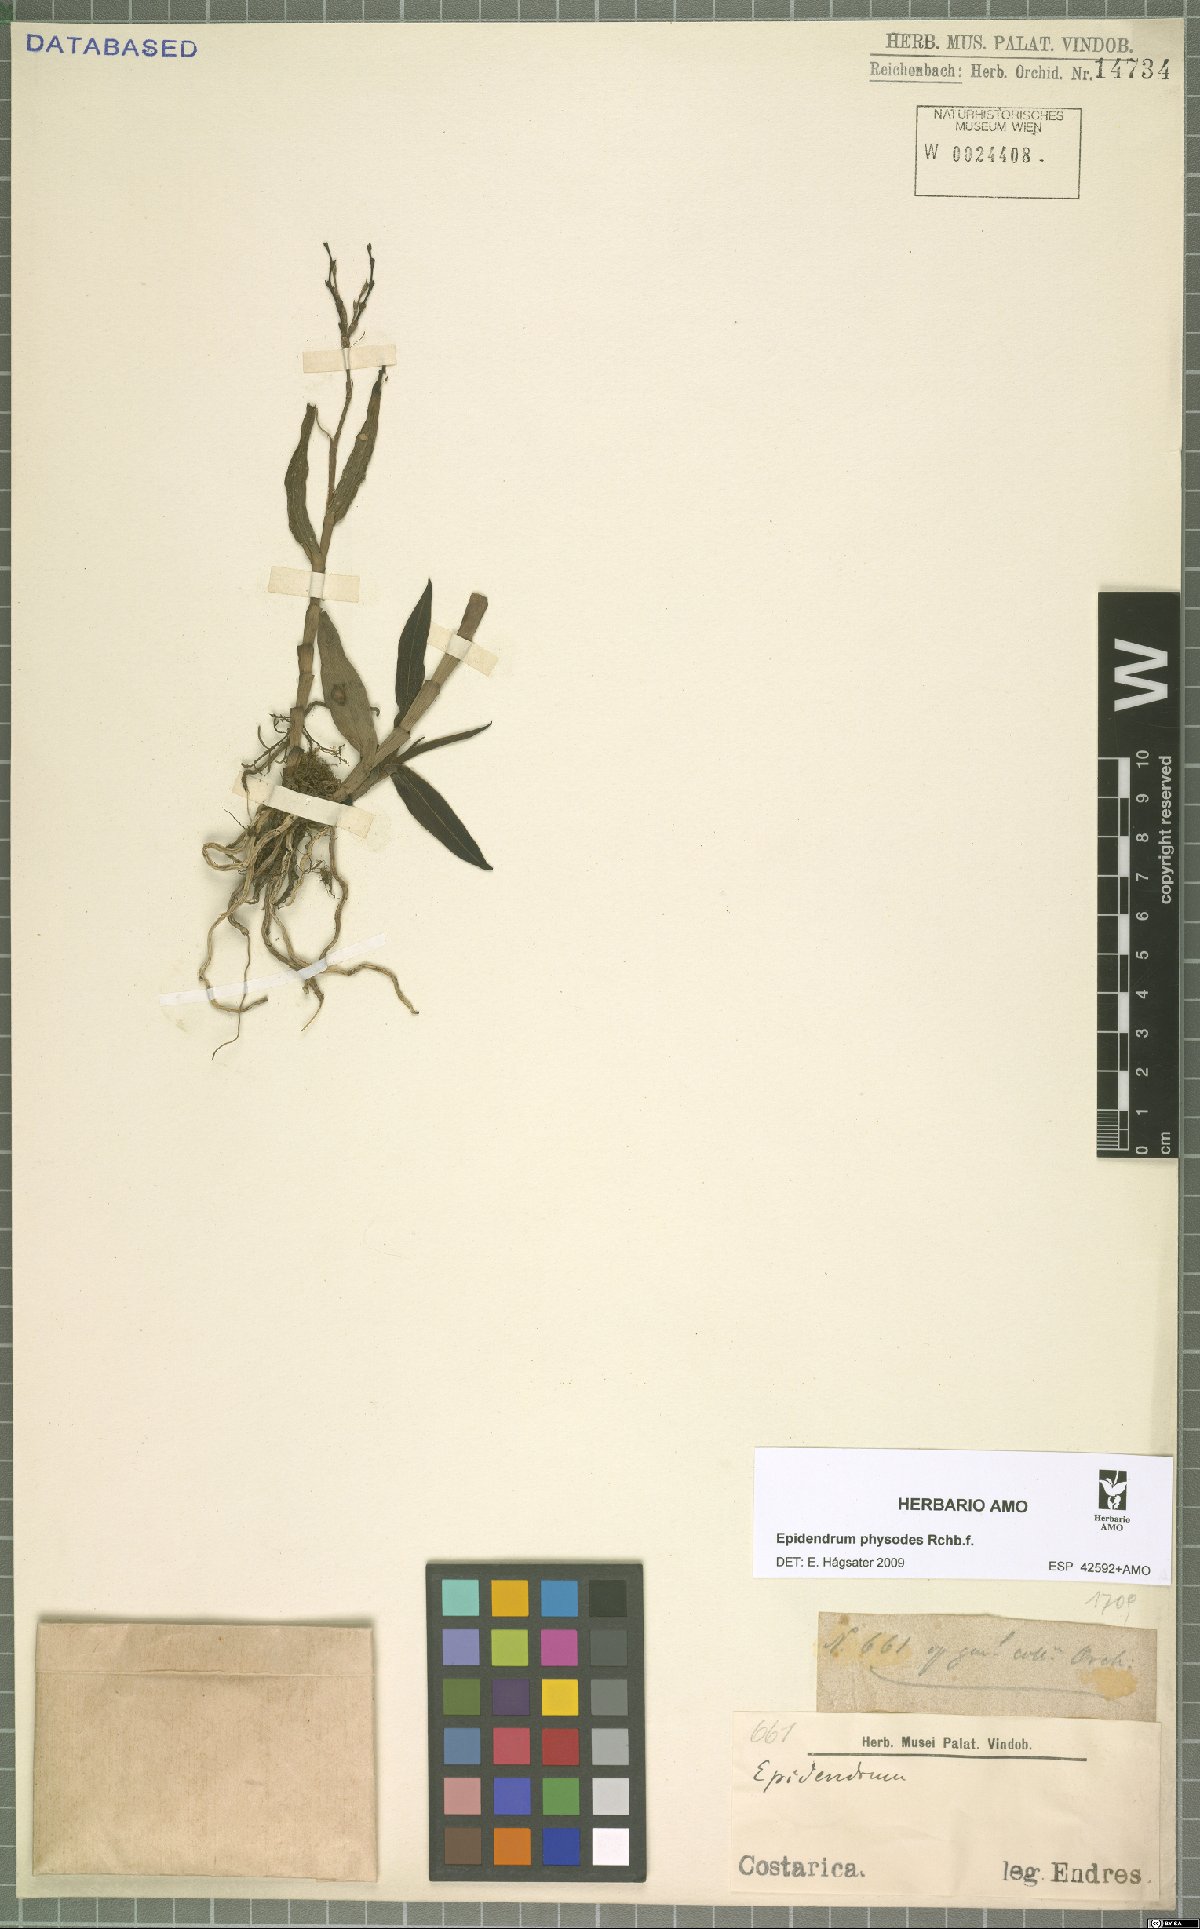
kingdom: Plantae
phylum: Tracheophyta
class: Liliopsida
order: Asparagales
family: Orchidaceae
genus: Epidendrum
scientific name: Epidendrum physodes
